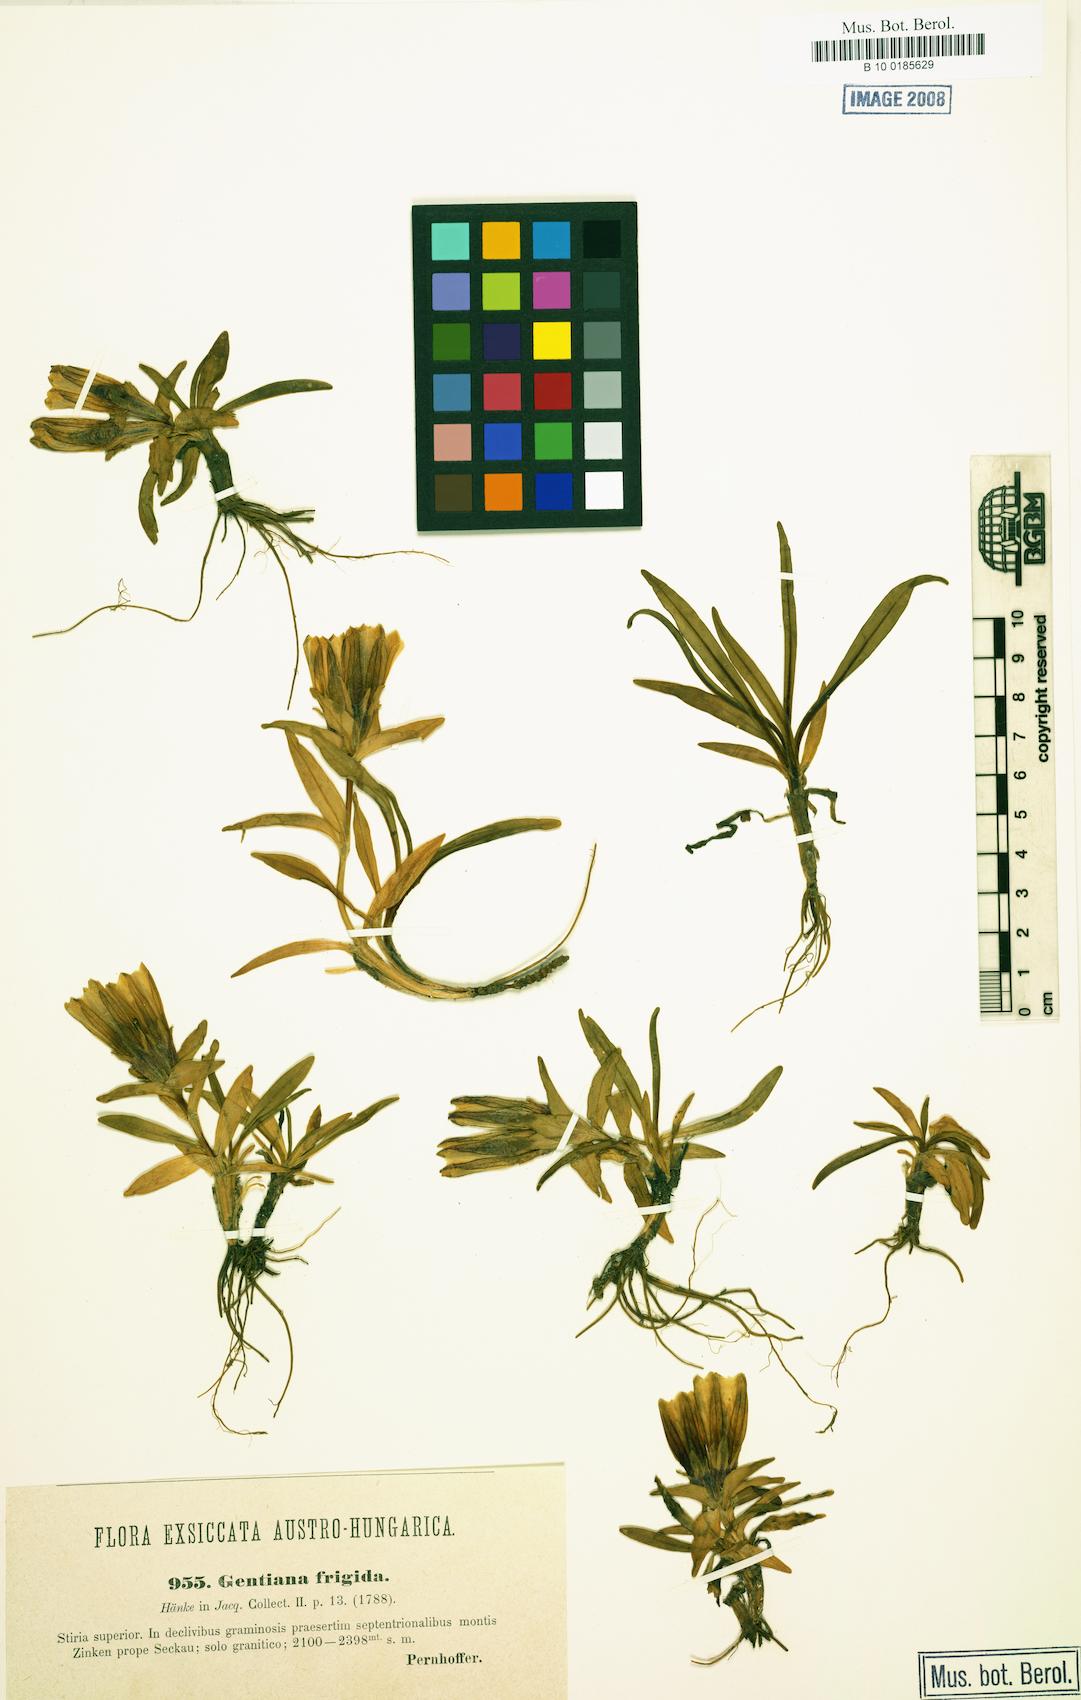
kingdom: Plantae
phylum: Tracheophyta
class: Magnoliopsida
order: Gentianales
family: Gentianaceae
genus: Gentiana
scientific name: Gentiana frigida
